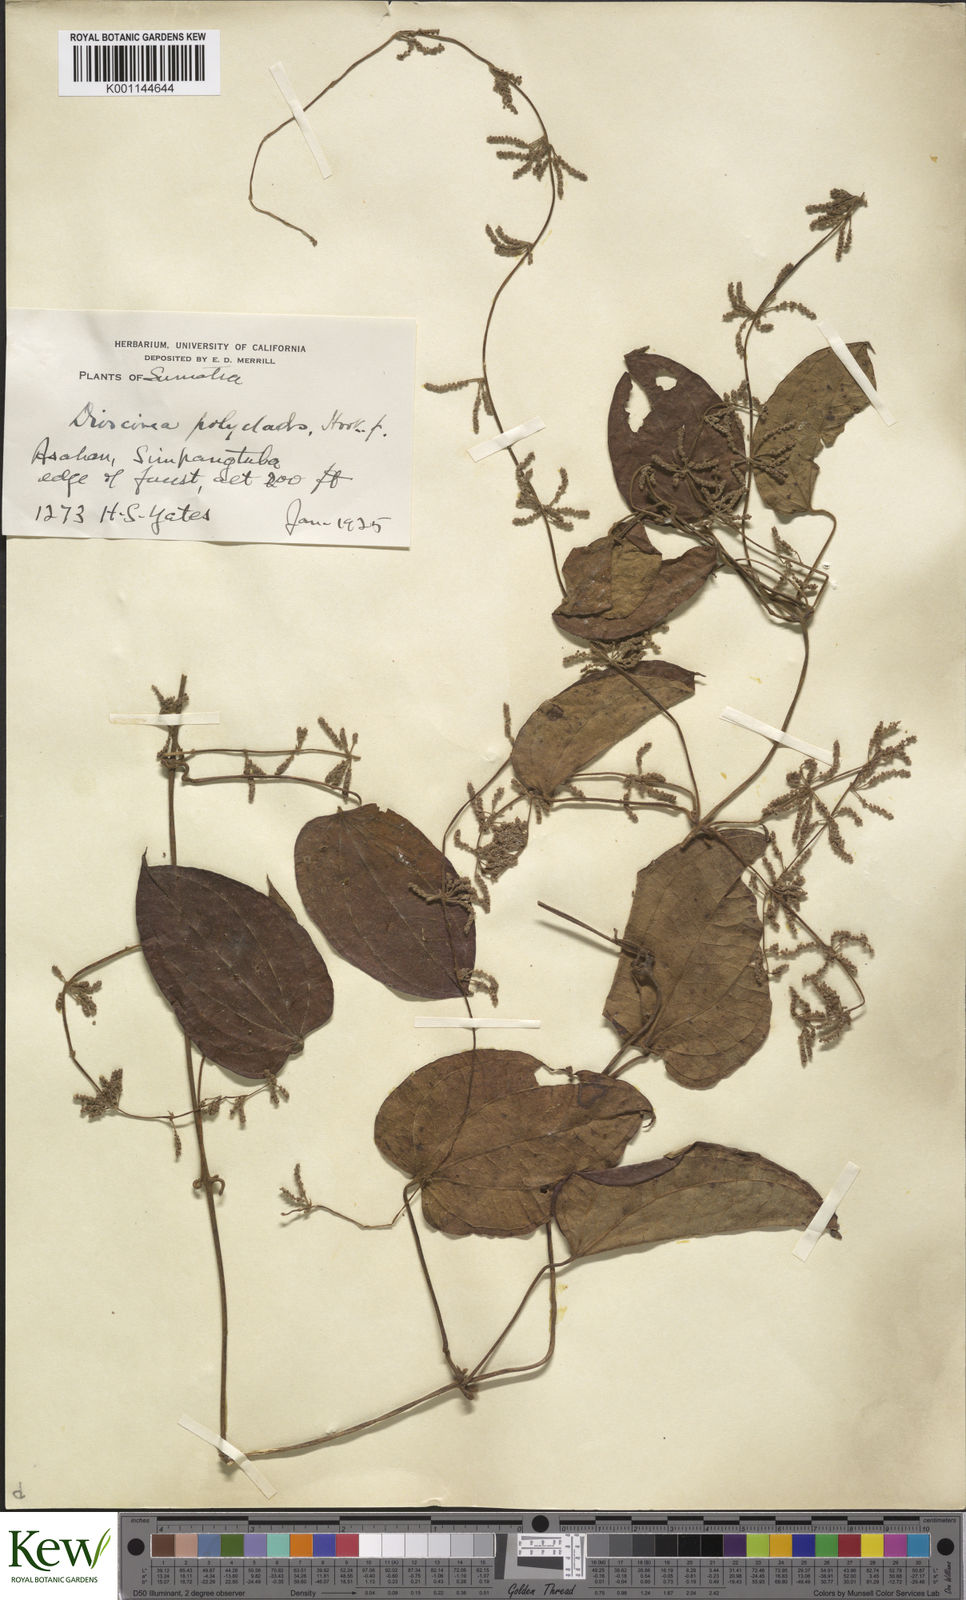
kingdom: Plantae
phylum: Tracheophyta
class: Liliopsida
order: Dioscoreales
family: Dioscoreaceae
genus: Dioscorea
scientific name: Dioscorea polyclados
